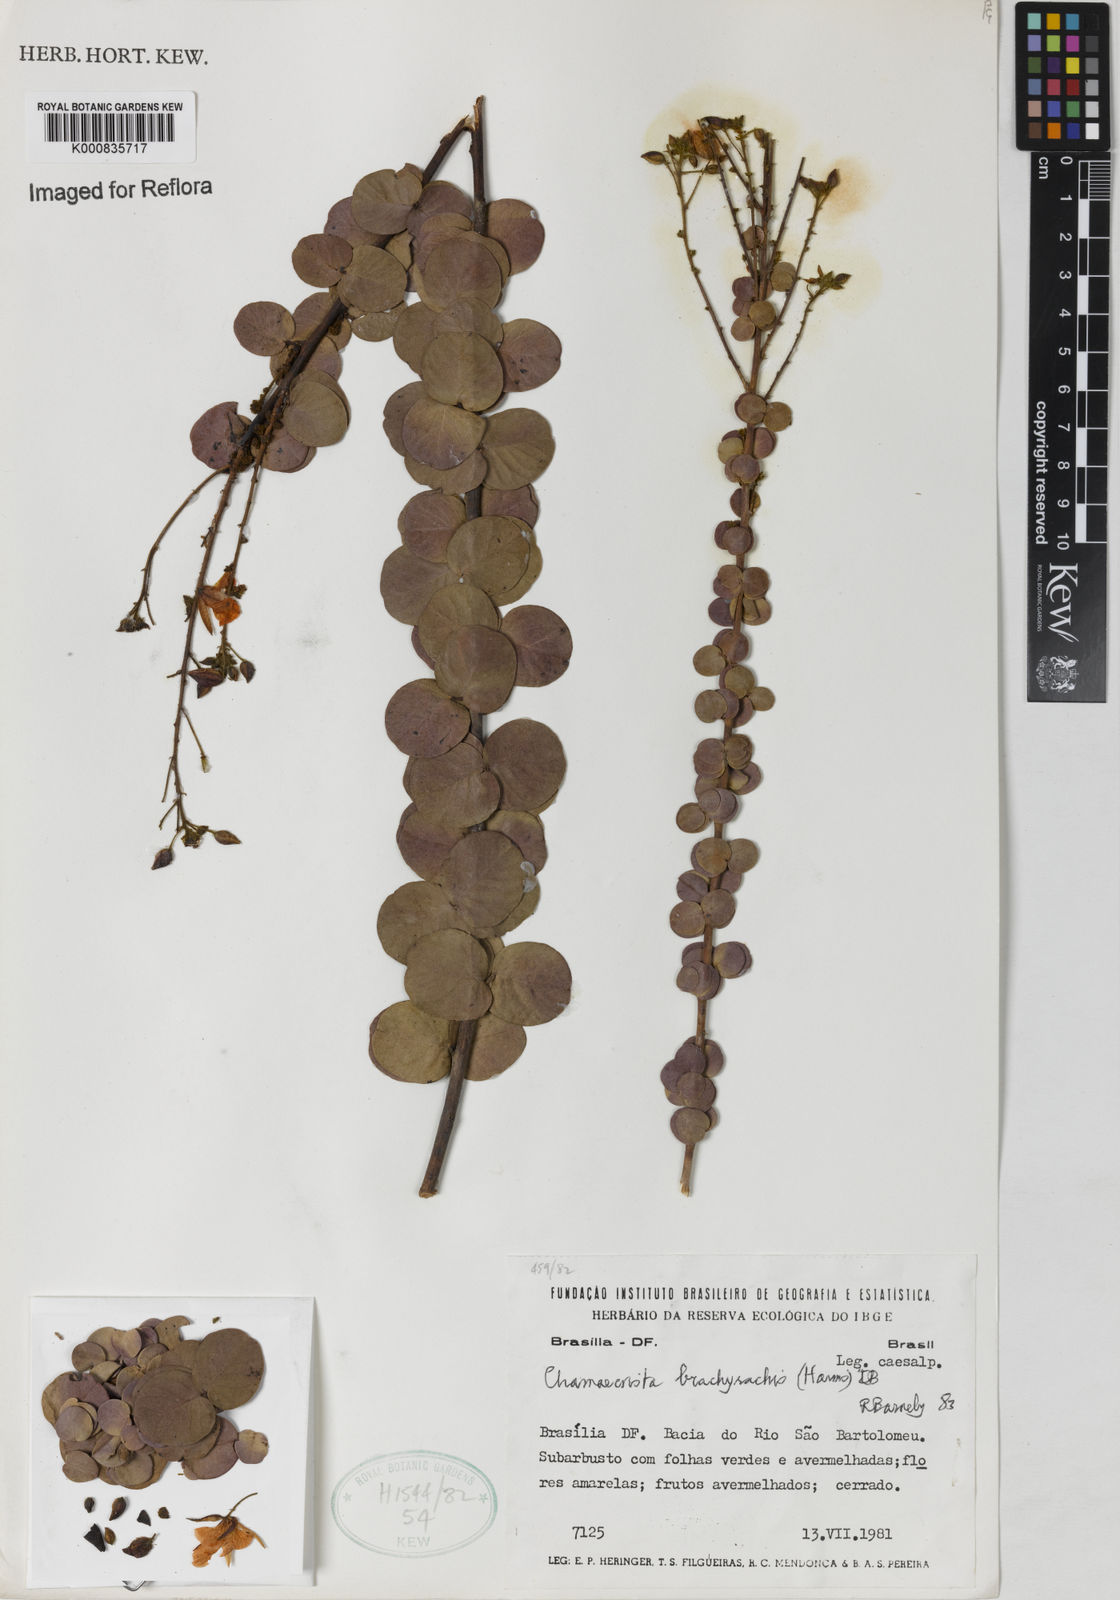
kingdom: Plantae
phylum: Tracheophyta
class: Magnoliopsida
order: Fabales
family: Fabaceae
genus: Chamaecrista
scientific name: Chamaecrista brachyrachis
